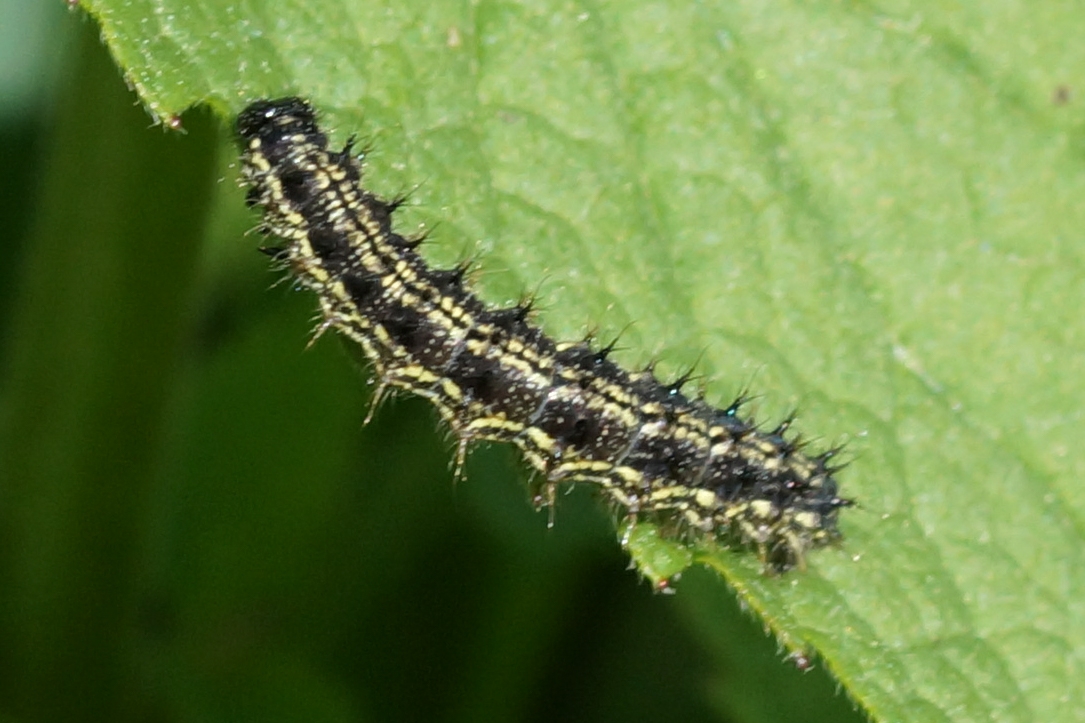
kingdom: Animalia
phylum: Arthropoda
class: Insecta
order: Lepidoptera
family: Nymphalidae
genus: Aglais
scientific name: Aglais urticae
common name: Nældens takvinge
